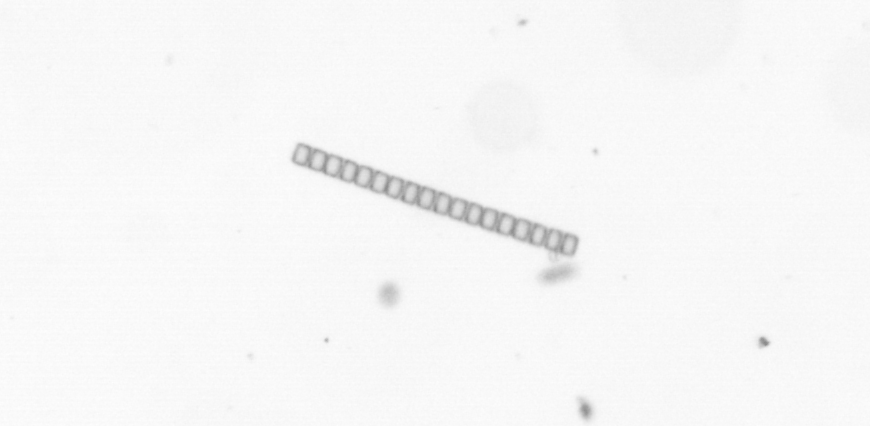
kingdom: Chromista
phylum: Ochrophyta
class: Bacillariophyceae
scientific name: Bacillariophyceae
